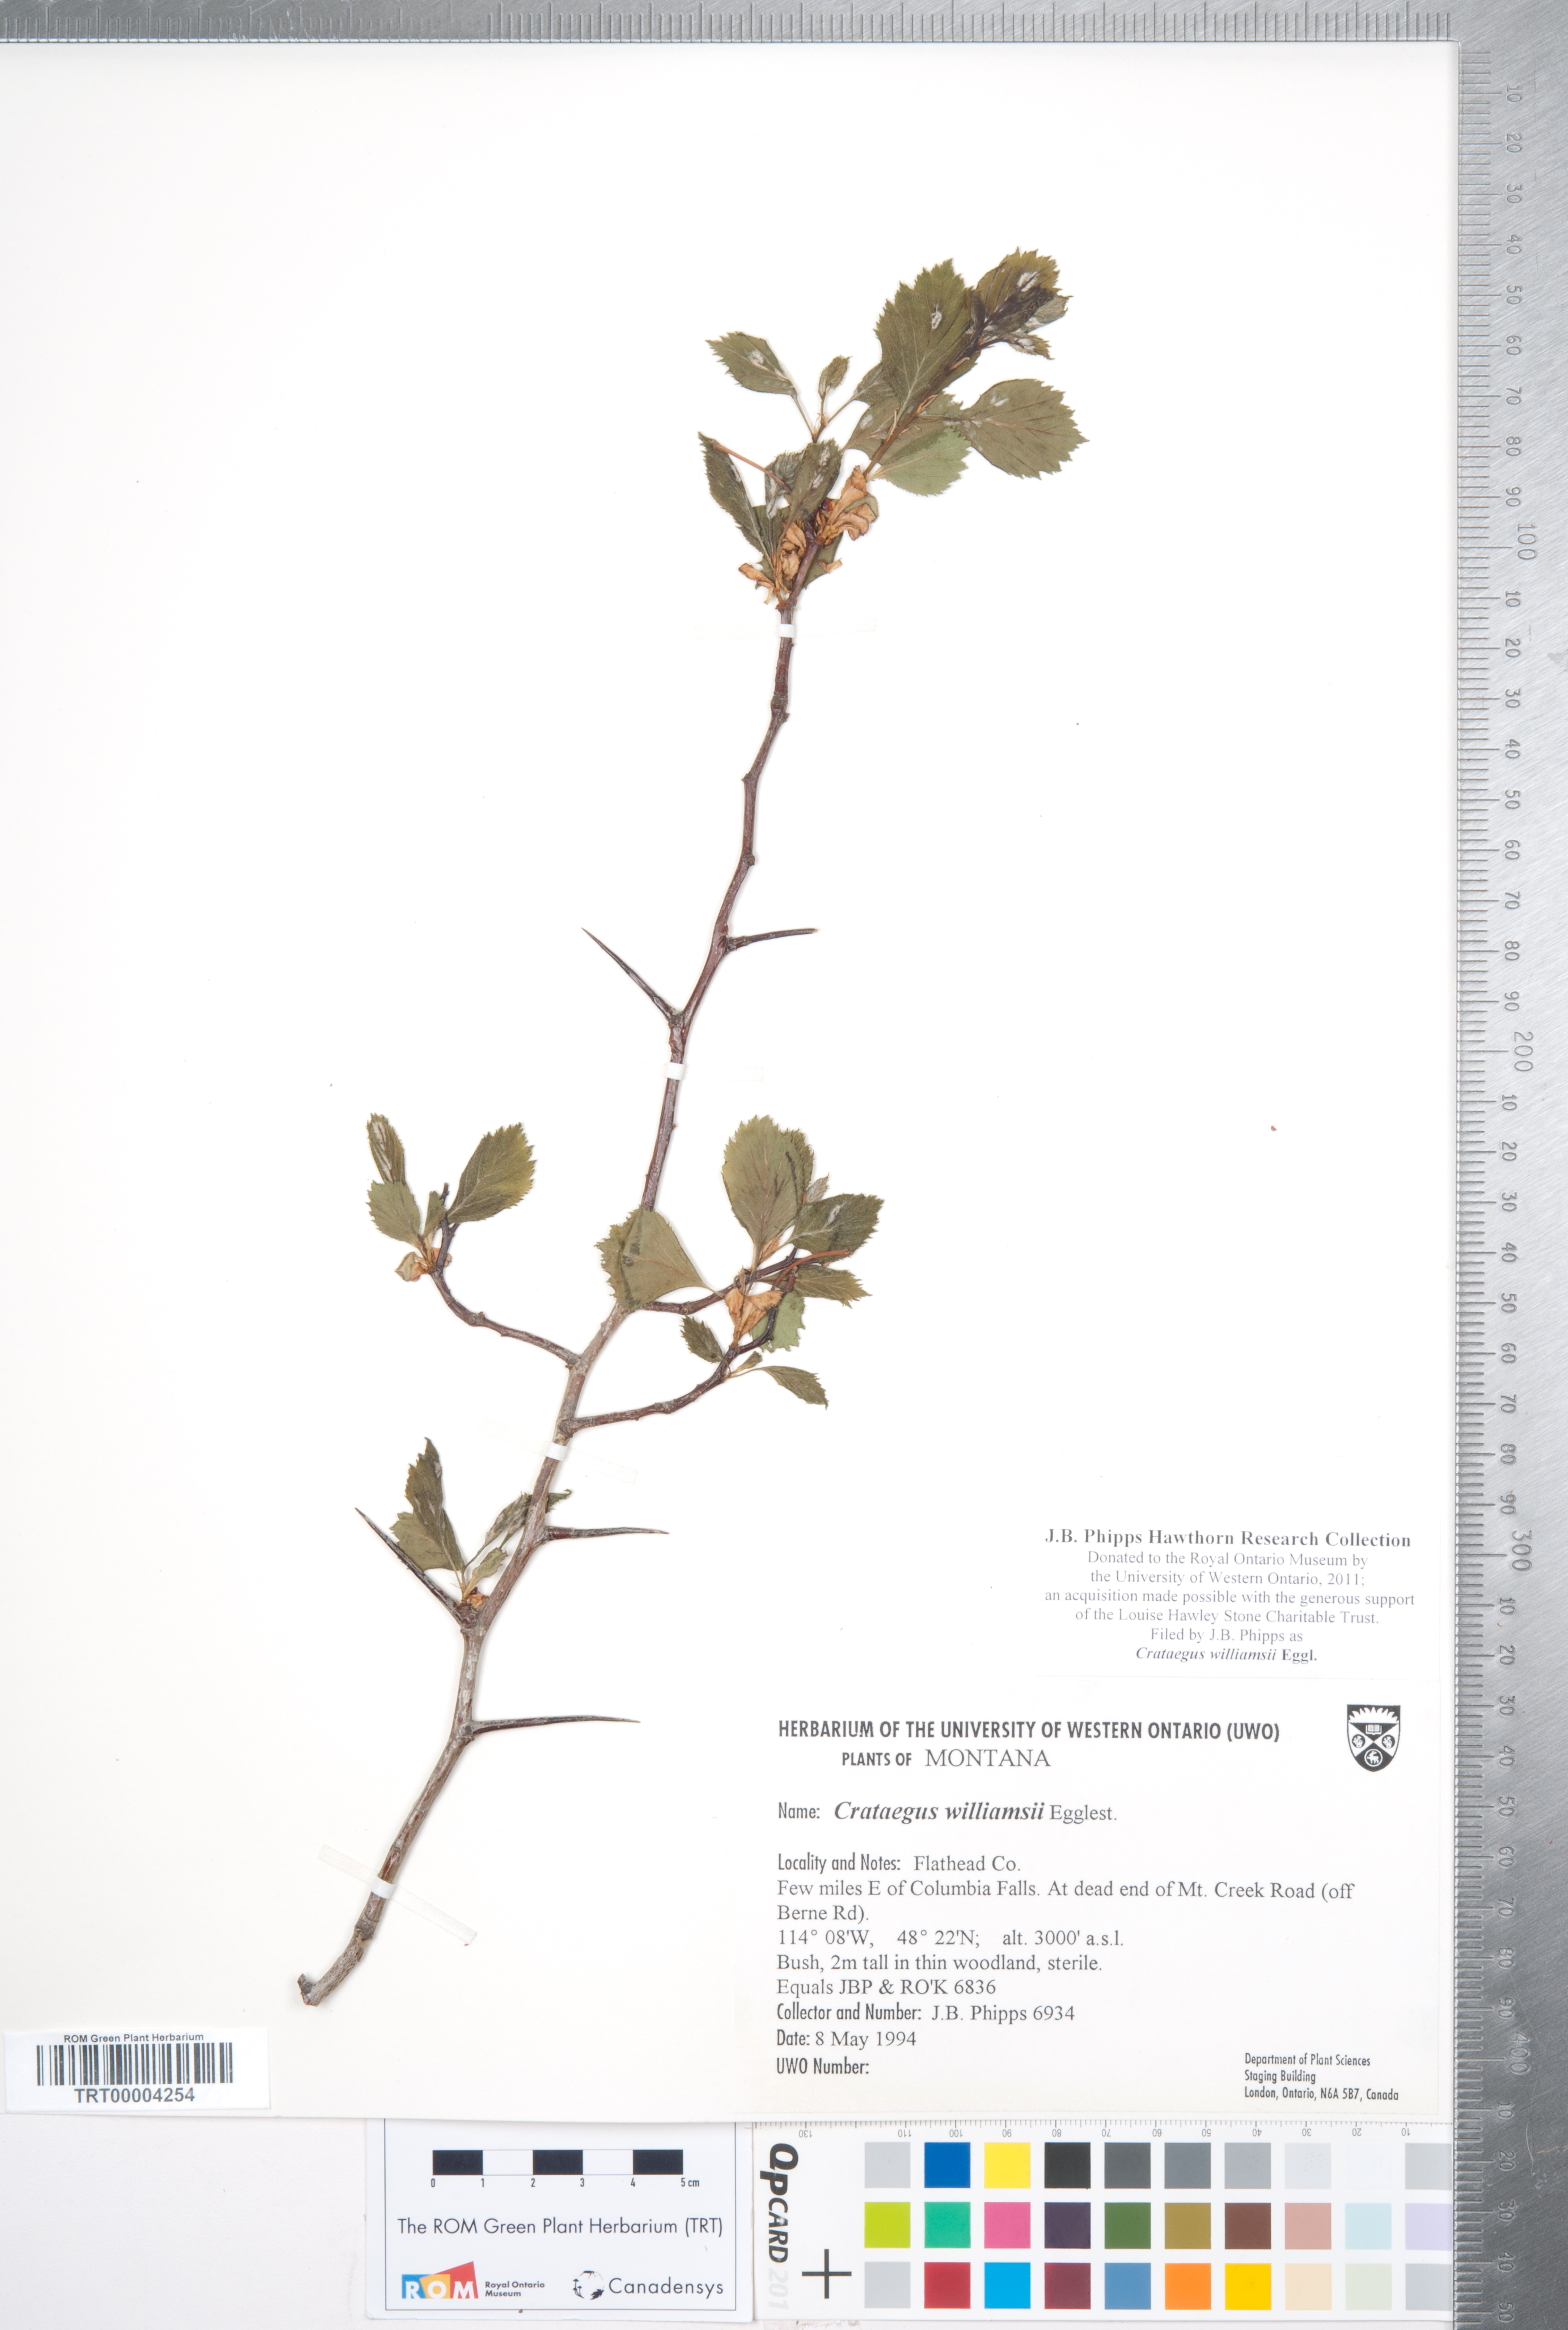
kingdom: Plantae
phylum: Tracheophyta
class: Magnoliopsida
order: Rosales
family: Rosaceae
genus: Crataegus
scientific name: Crataegus williamsii
